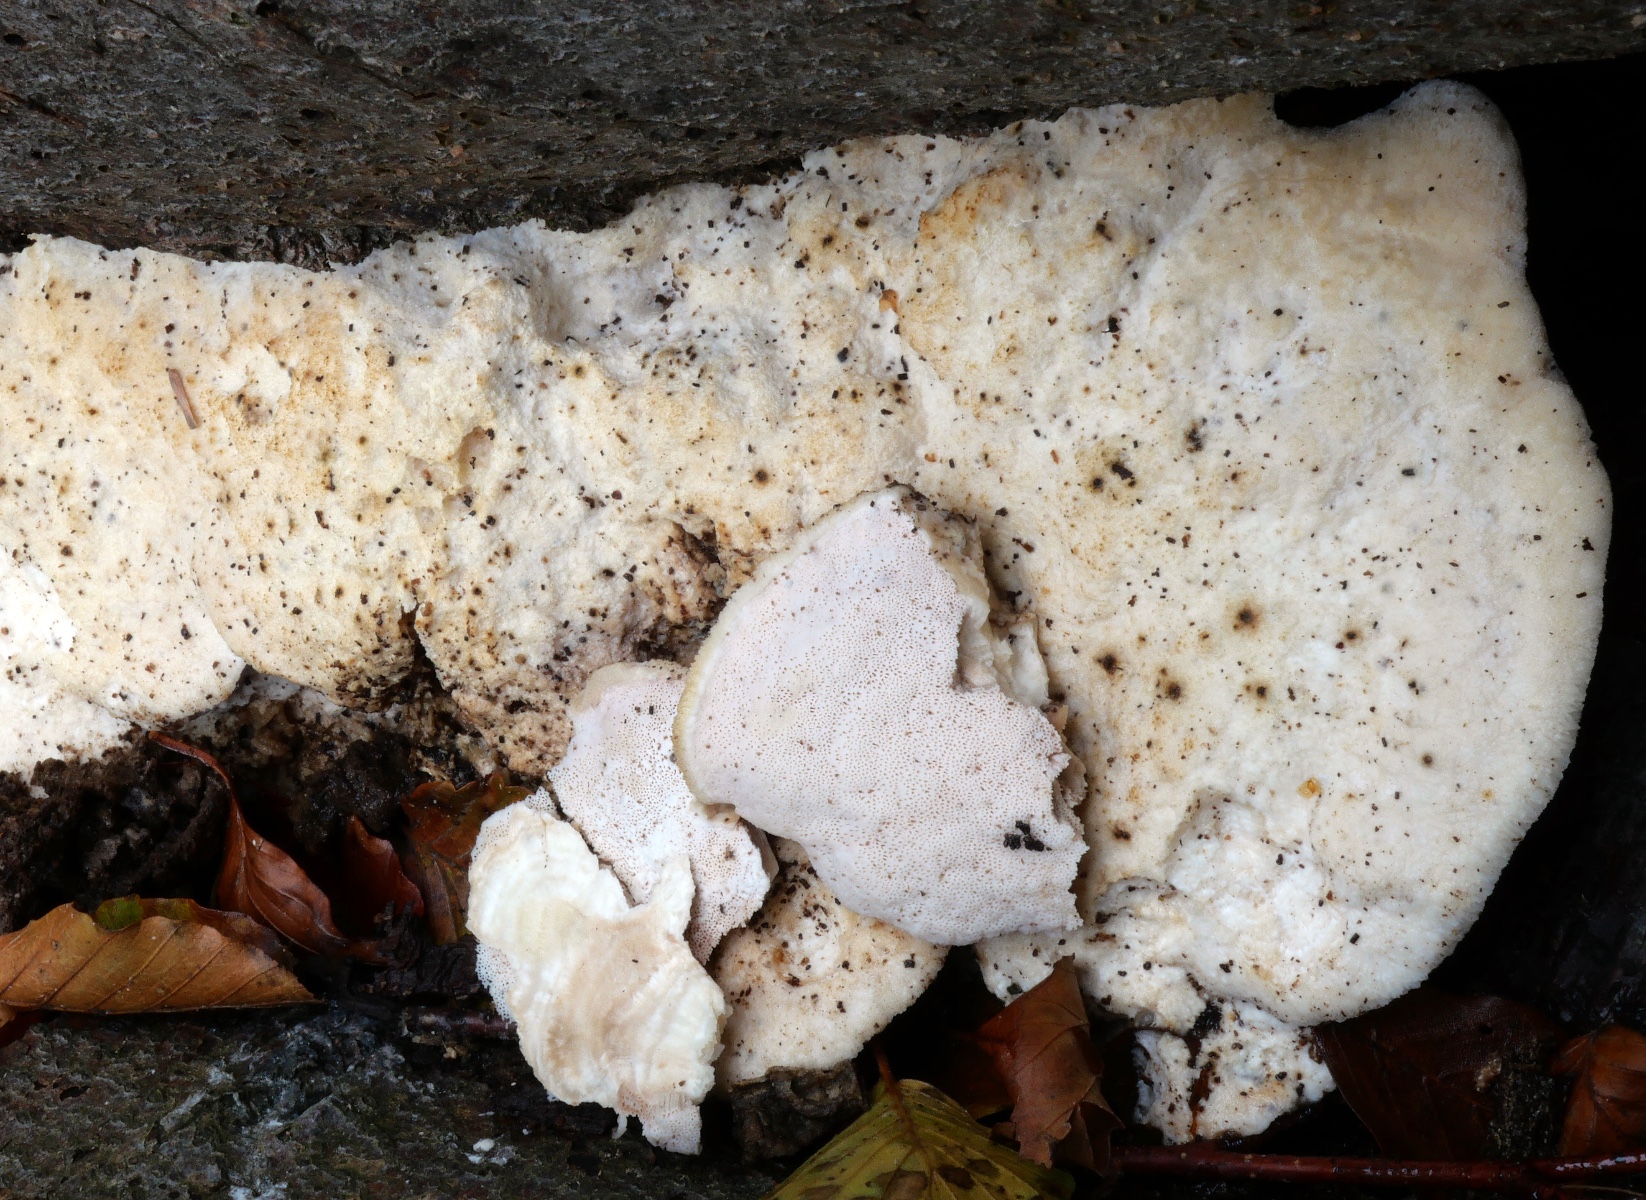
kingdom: Fungi
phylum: Basidiomycota
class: Agaricomycetes
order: Polyporales
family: Meruliaceae
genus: Pappia
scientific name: Pappia fissilis
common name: sej fedtporesvamp
